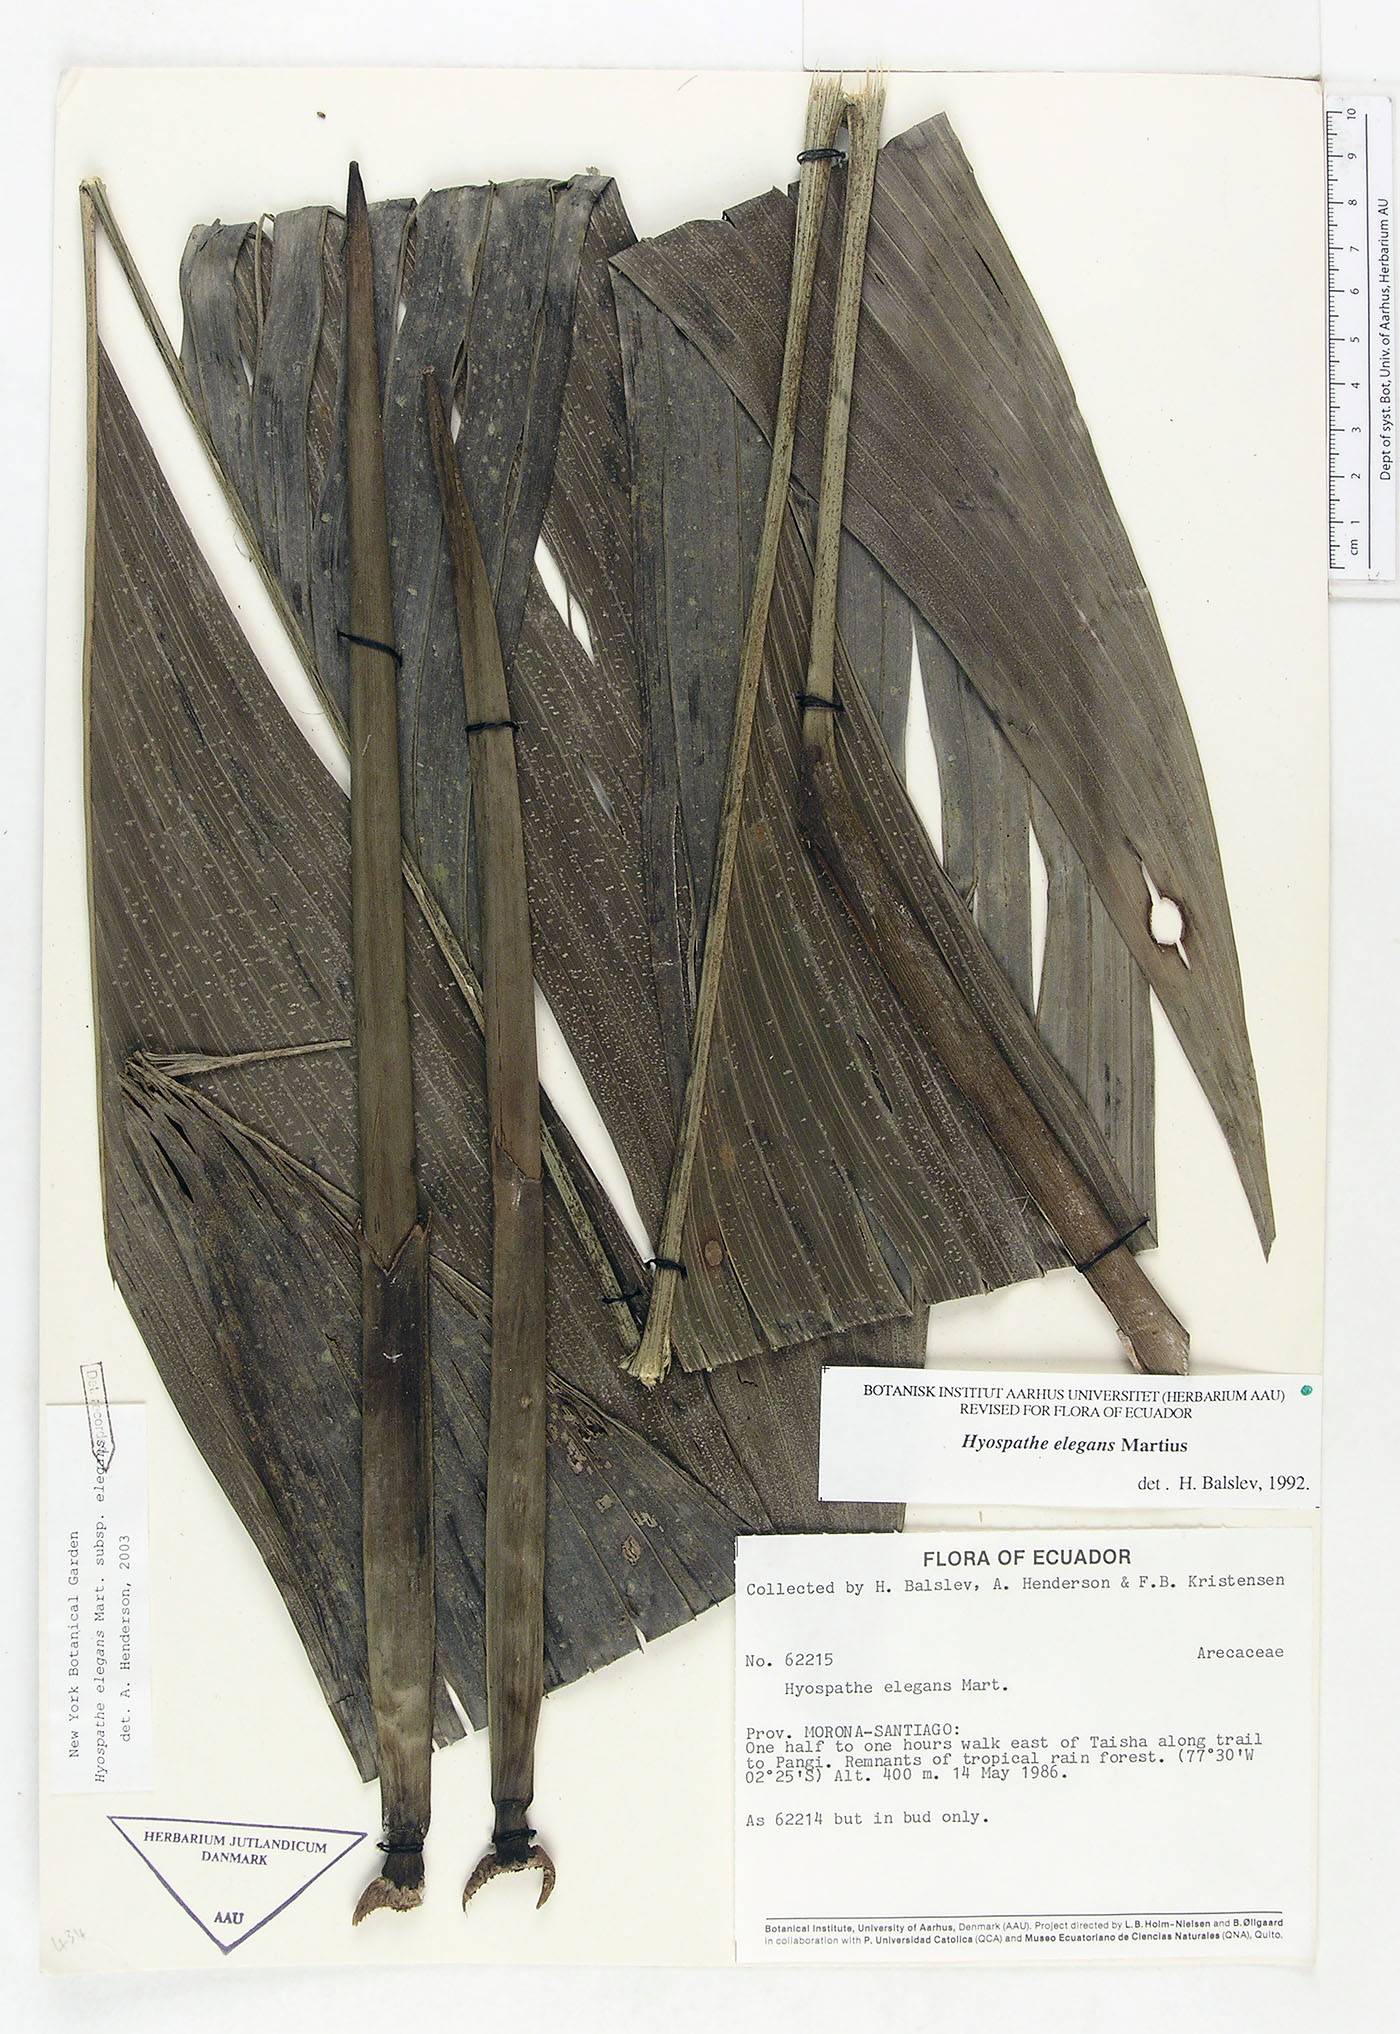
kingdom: Plantae
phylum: Tracheophyta
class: Liliopsida
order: Arecales
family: Arecaceae
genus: Hyospathe
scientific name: Hyospathe elegans
